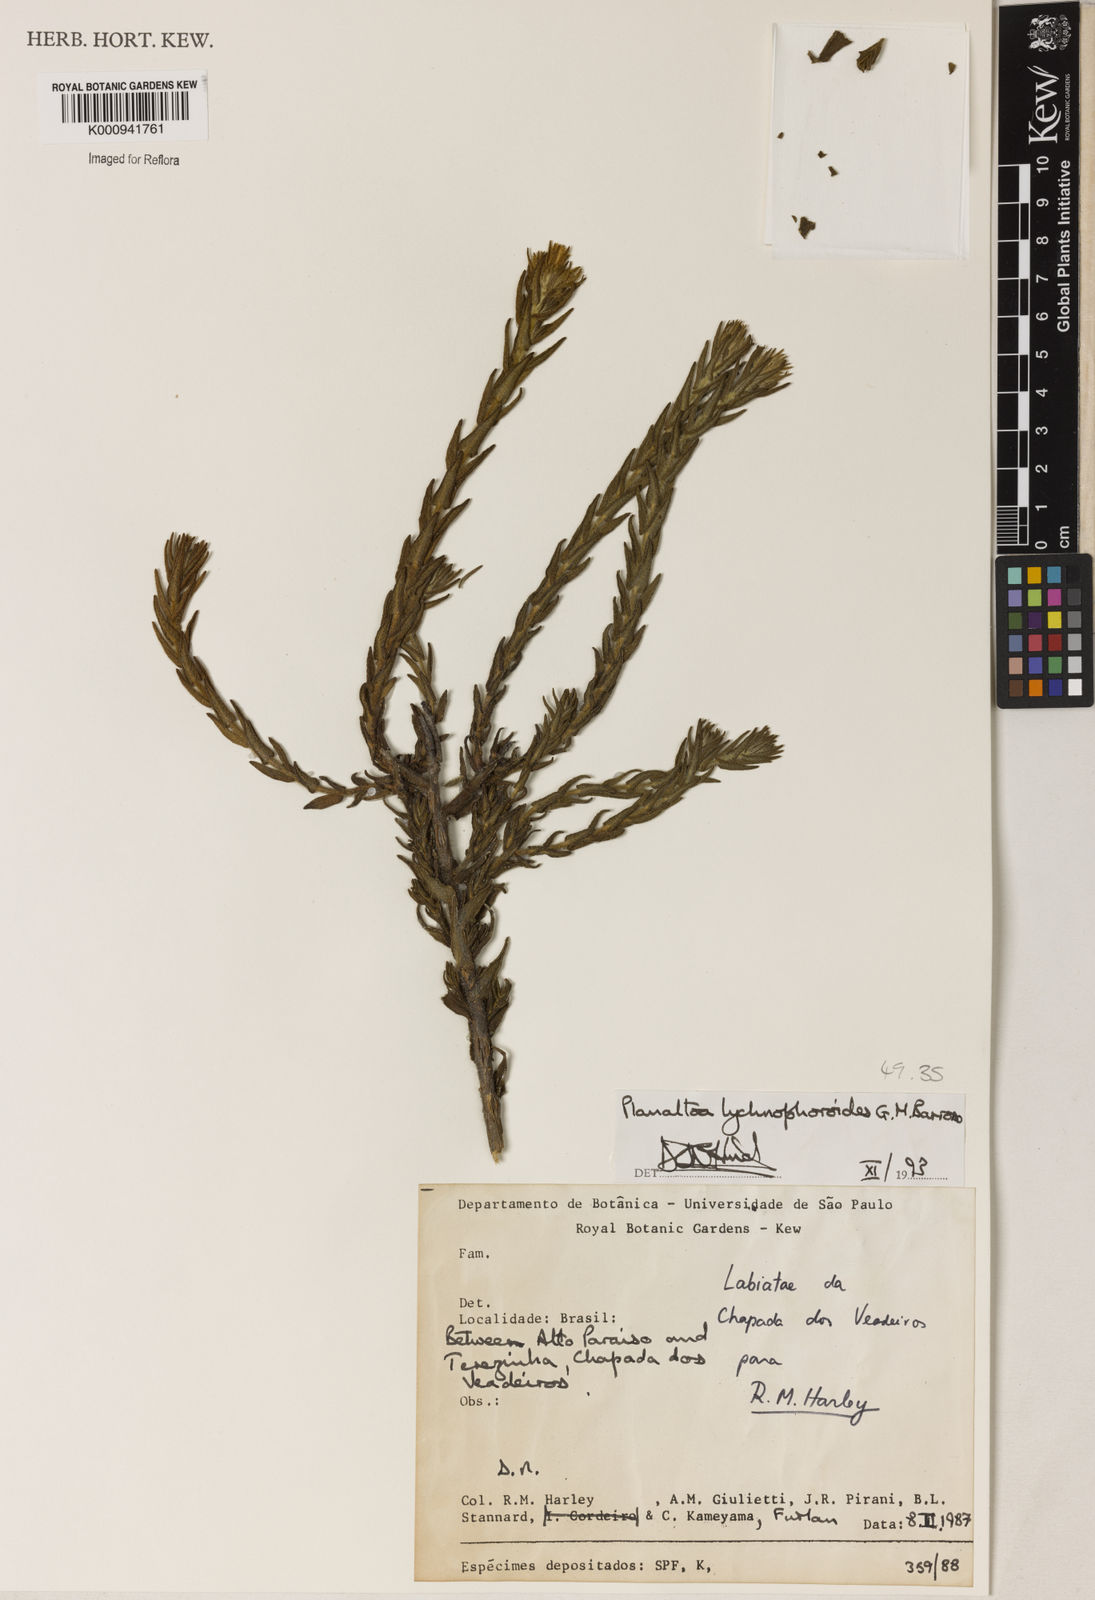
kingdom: Plantae
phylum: Tracheophyta
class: Magnoliopsida
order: Asterales
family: Asteraceae
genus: Planaltoa
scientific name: Planaltoa lychnophoroides
